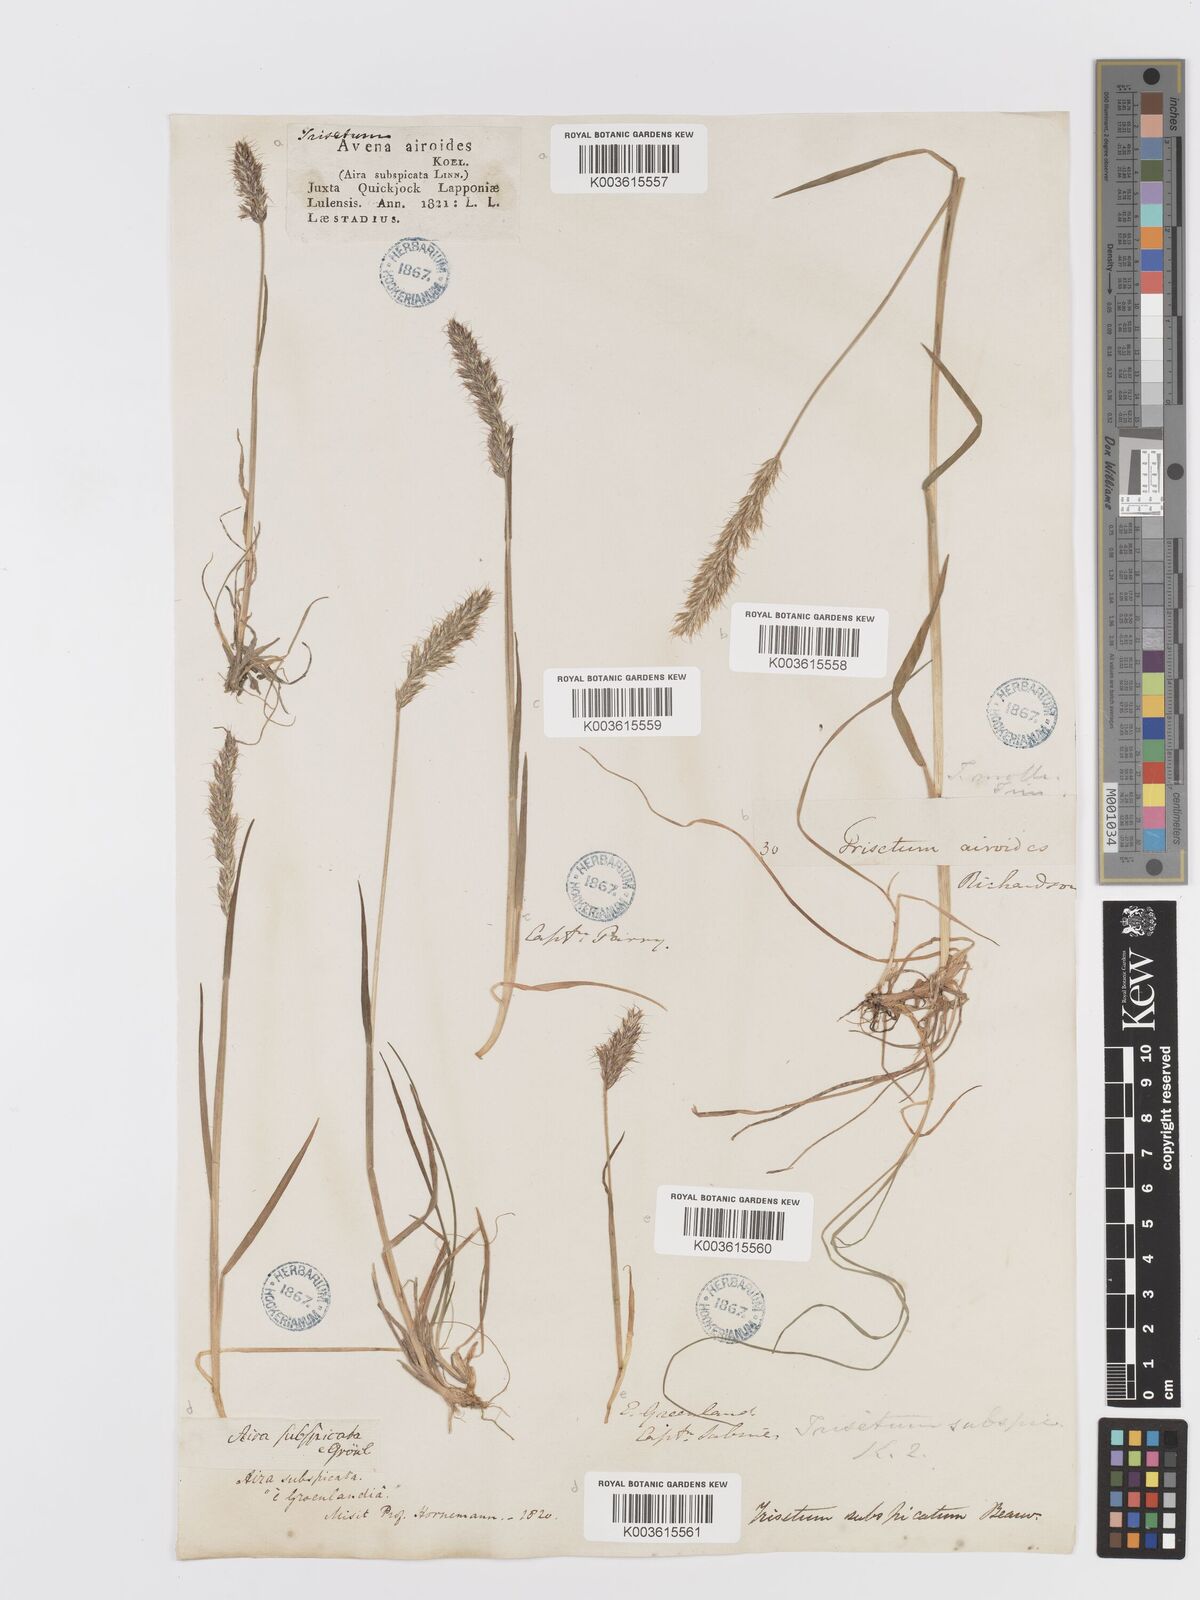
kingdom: Plantae
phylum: Tracheophyta
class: Liliopsida
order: Poales
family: Poaceae
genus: Koeleria
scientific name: Koeleria spicata
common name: Mountain trisetum
